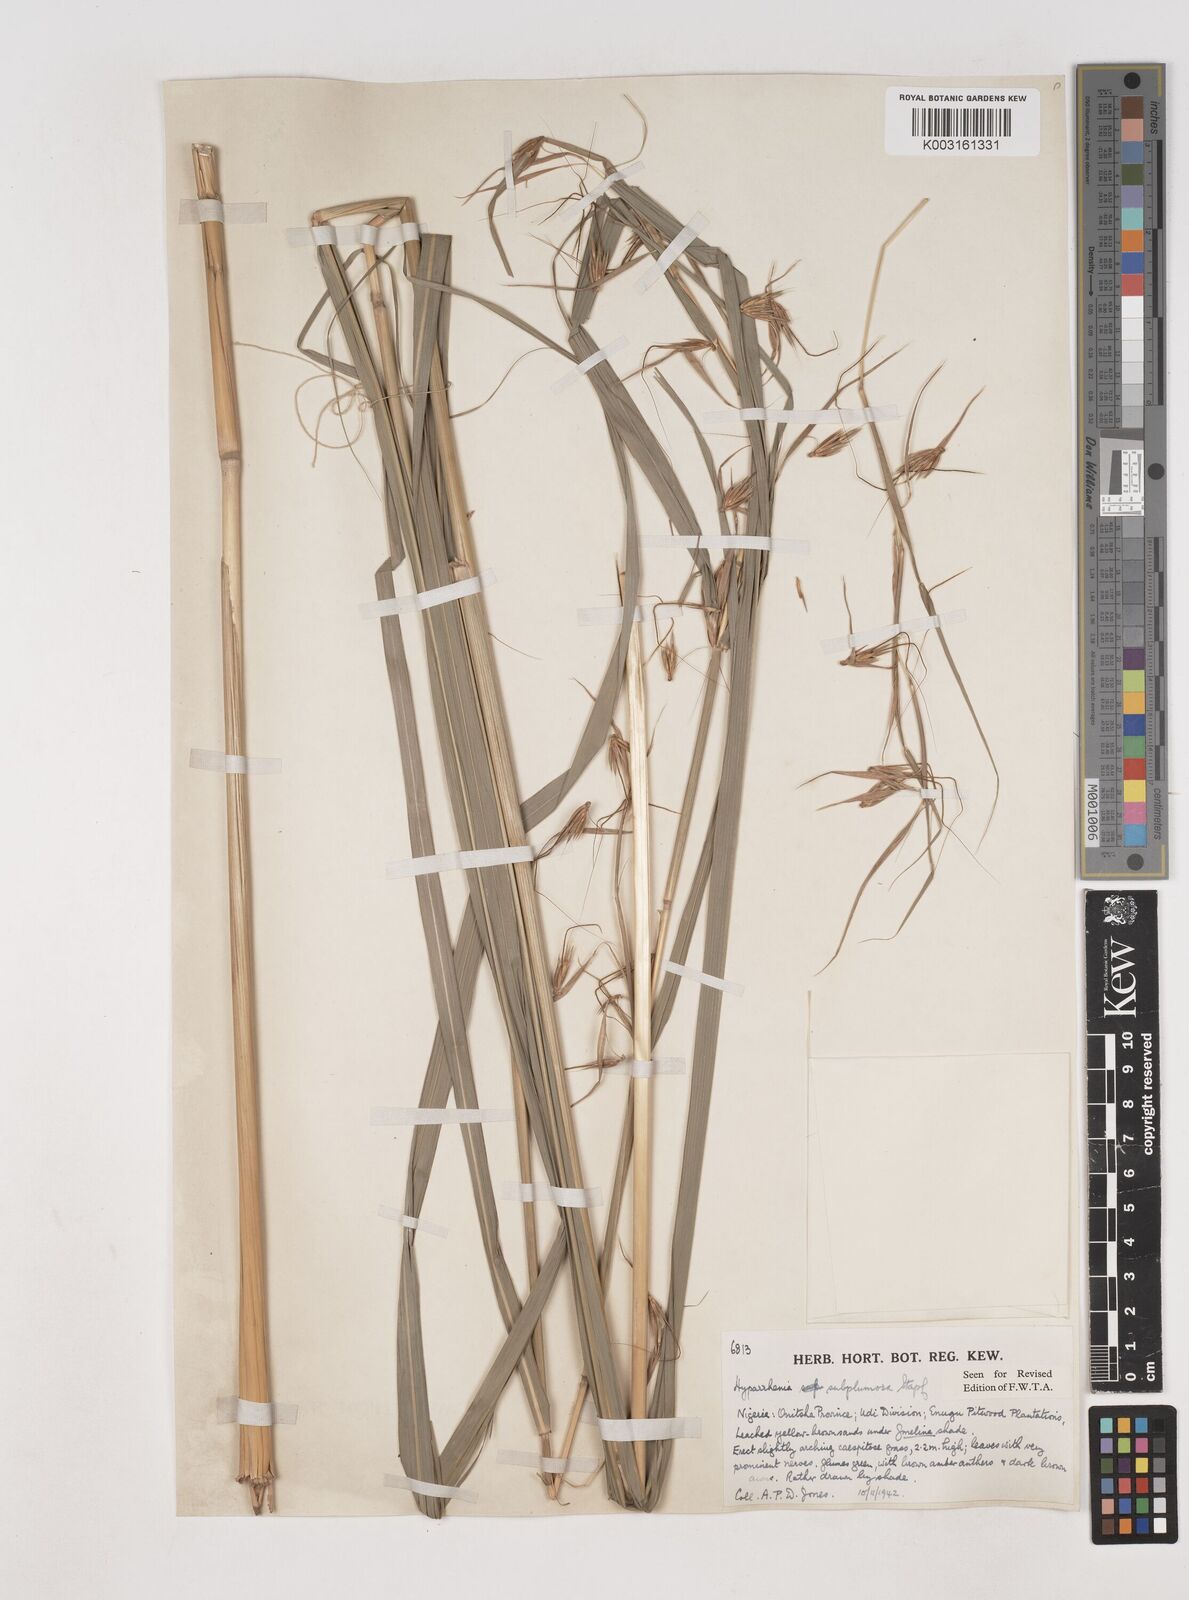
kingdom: Plantae
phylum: Tracheophyta
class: Liliopsida
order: Poales
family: Poaceae
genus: Hyparrhenia
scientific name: Hyparrhenia subplumosa
